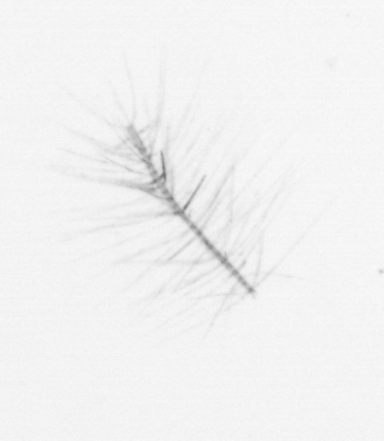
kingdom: Chromista
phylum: Ochrophyta
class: Bacillariophyceae
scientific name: Bacillariophyceae
